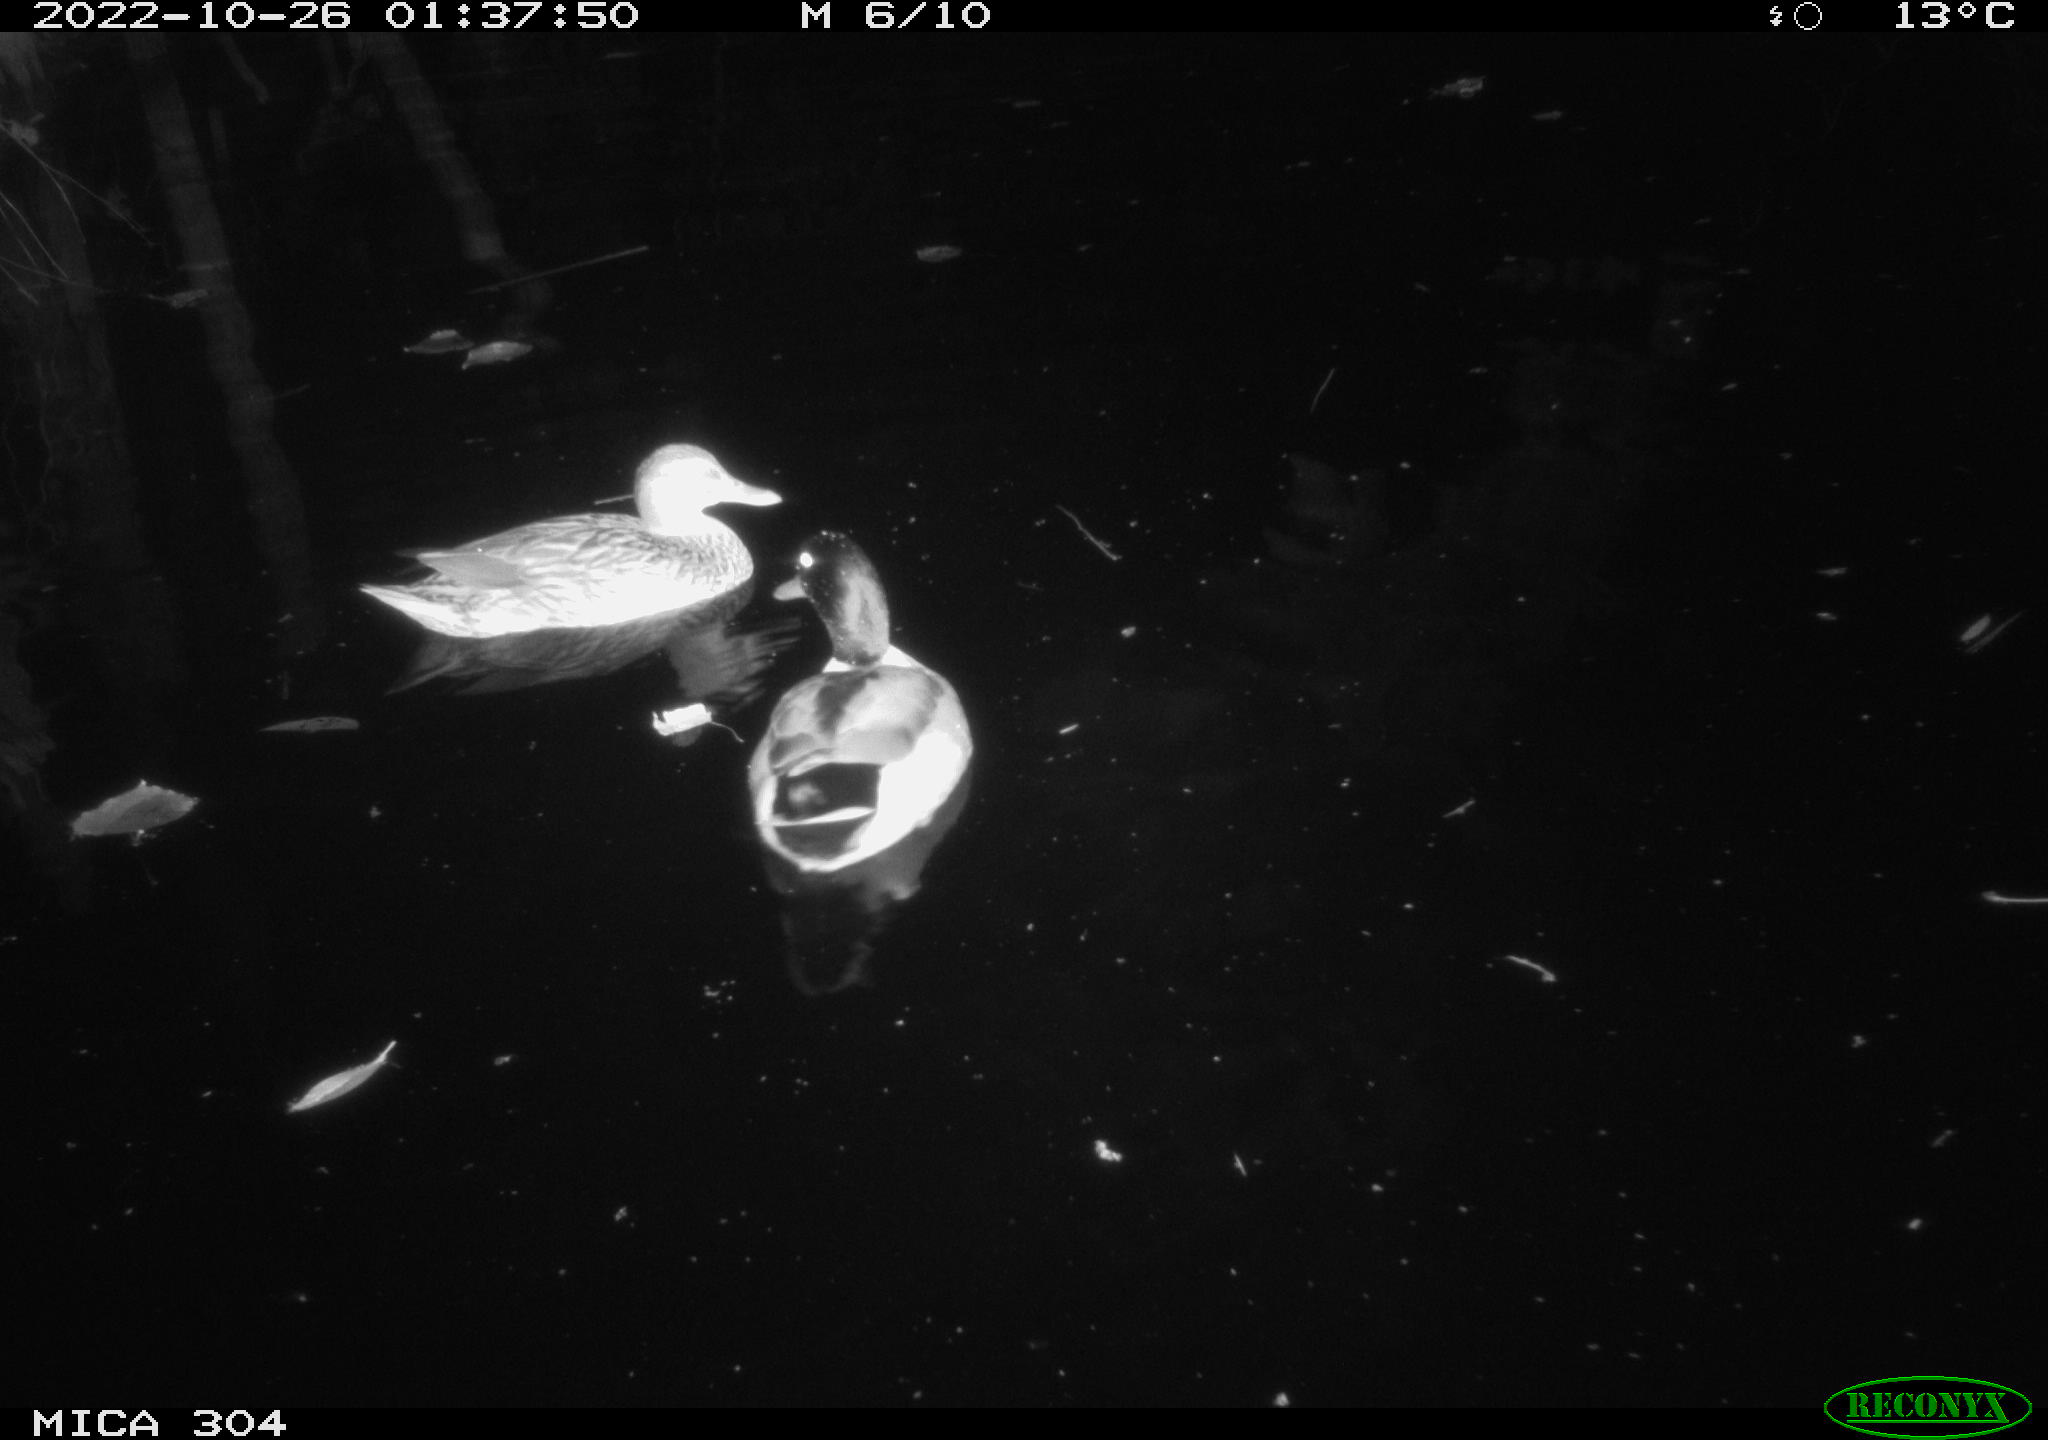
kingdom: Animalia
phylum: Chordata
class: Aves
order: Anseriformes
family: Anatidae
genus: Anas
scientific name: Anas
